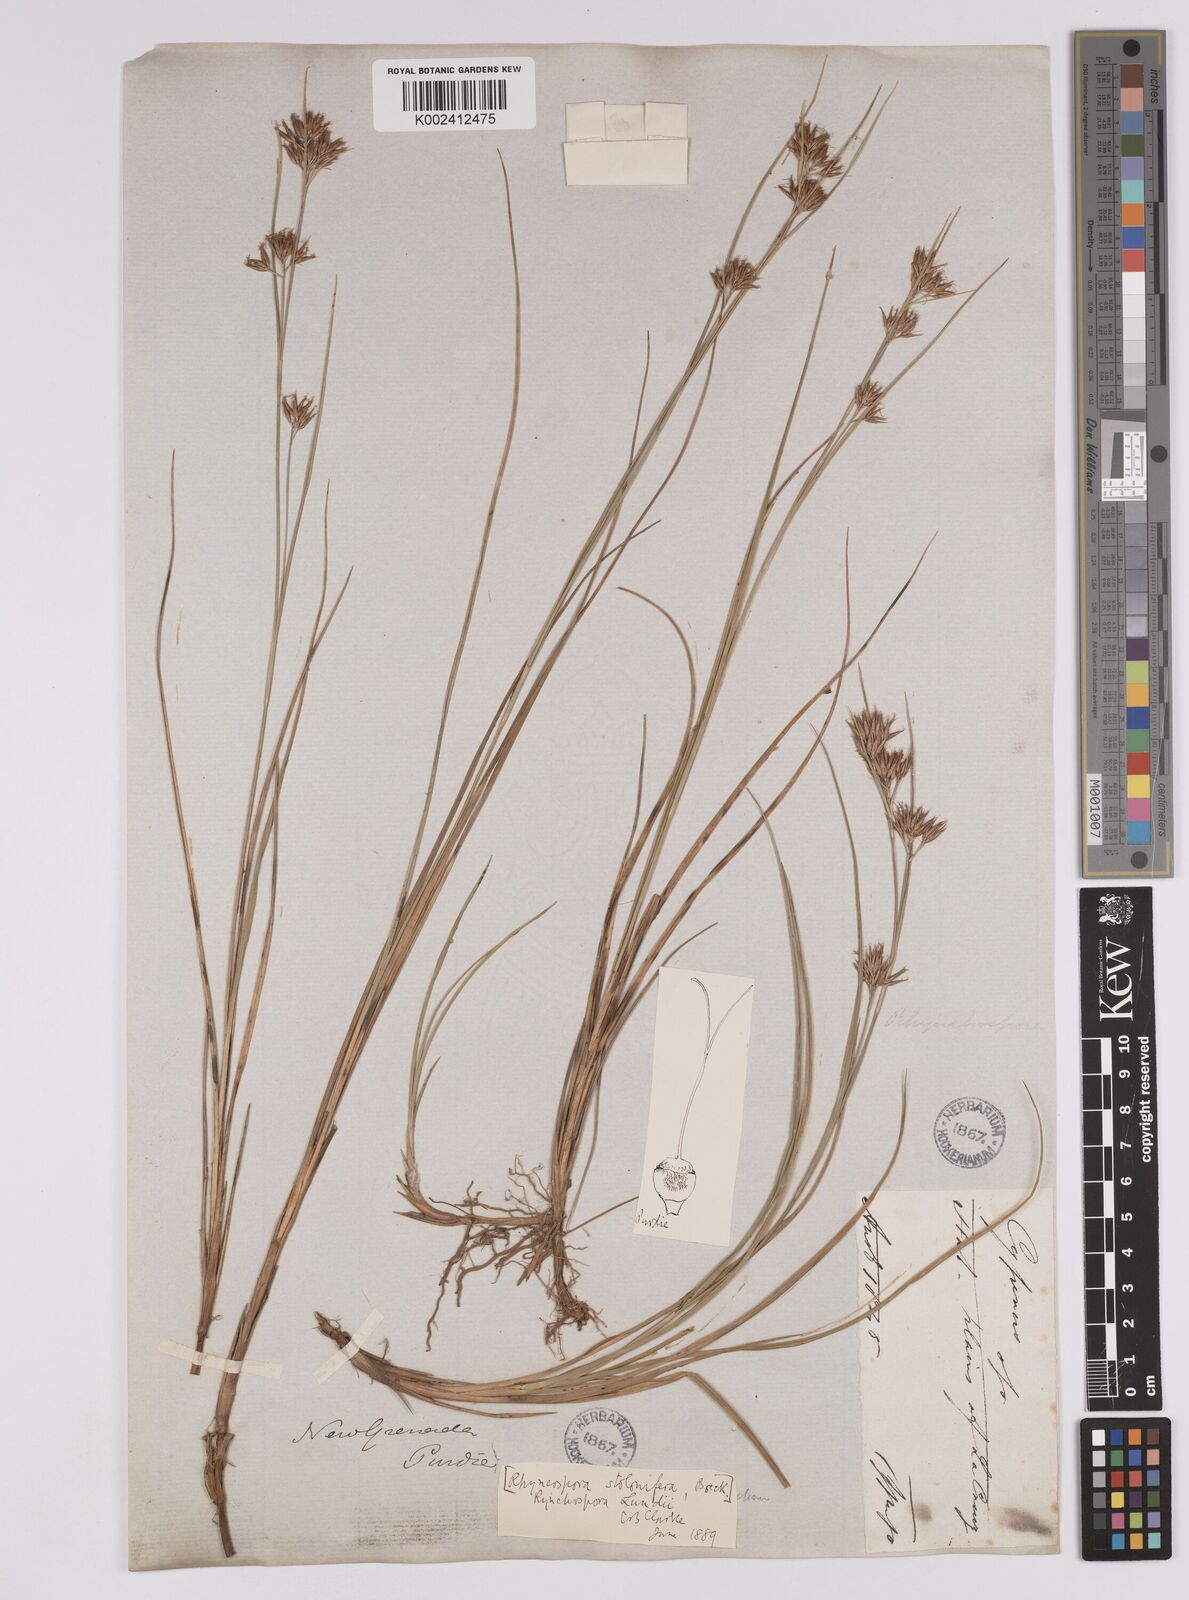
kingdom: Plantae
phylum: Tracheophyta
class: Liliopsida
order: Poales
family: Cyperaceae
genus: Rhynchospora
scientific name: Rhynchospora confinis
